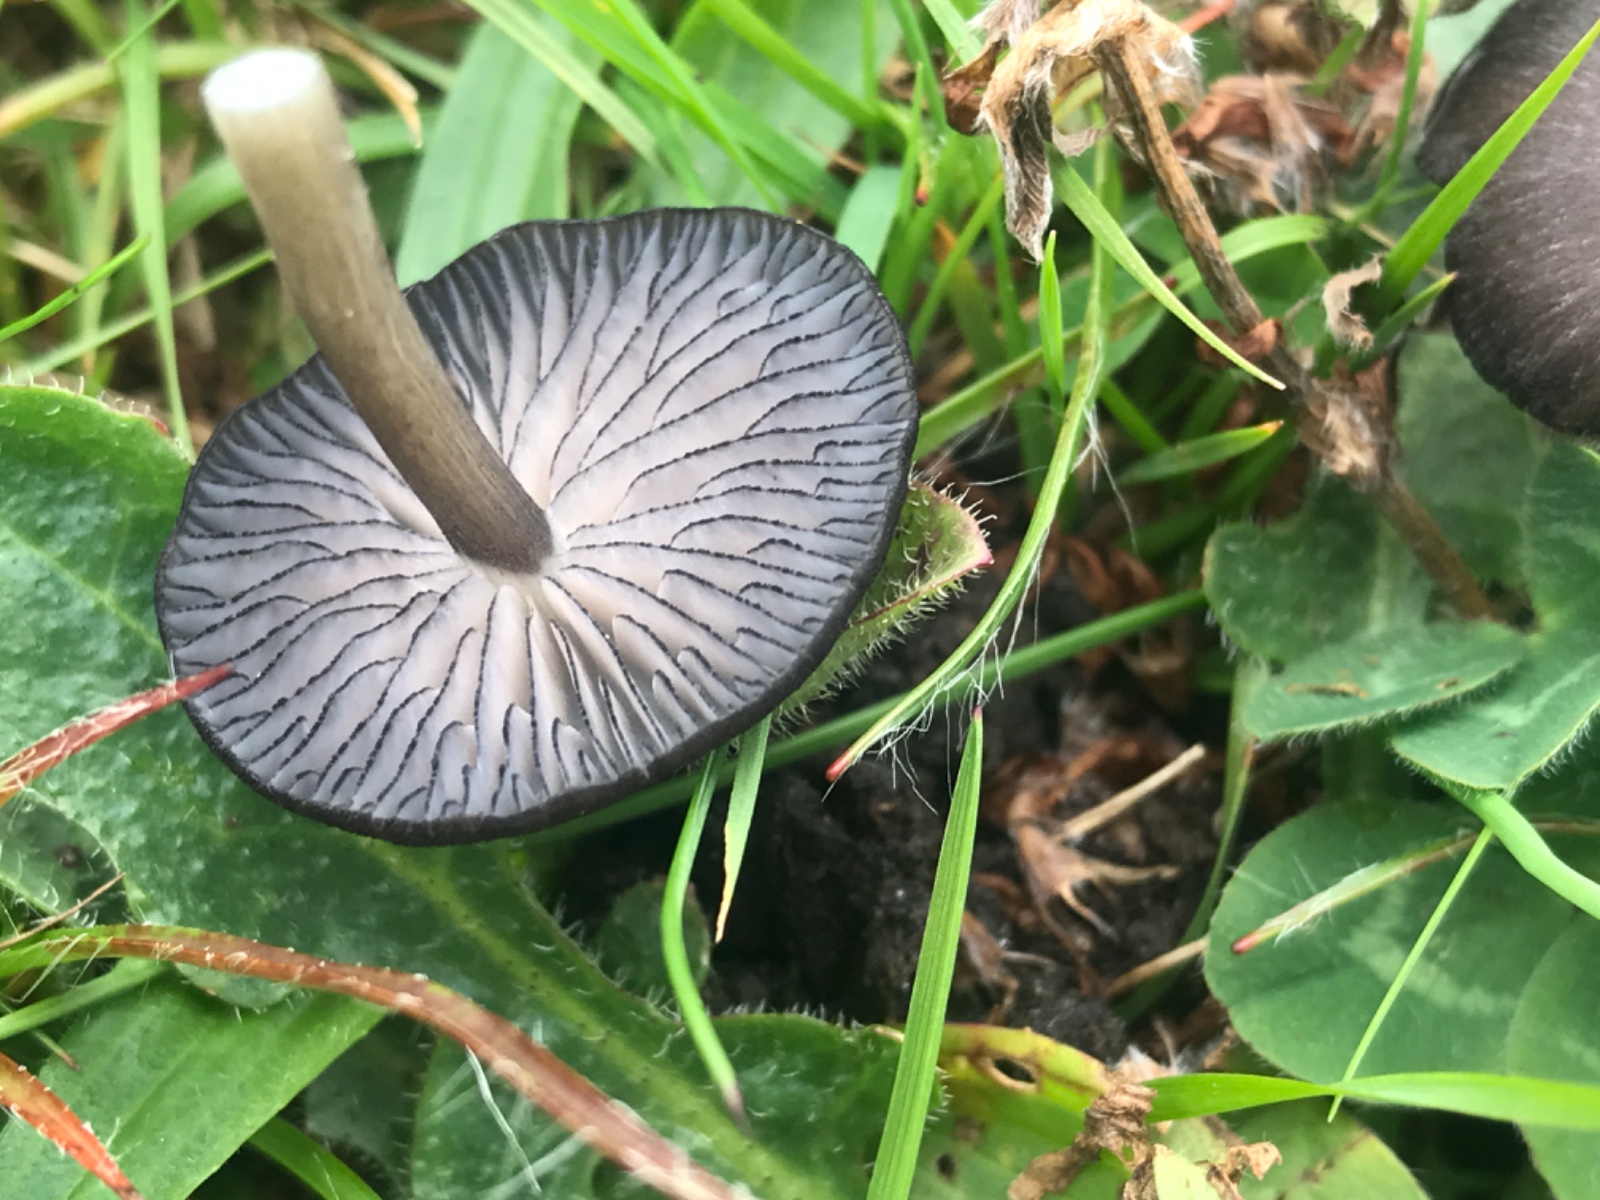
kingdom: Fungi
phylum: Basidiomycota
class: Agaricomycetes
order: Agaricales
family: Entolomataceae
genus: Entoloma
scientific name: Entoloma
